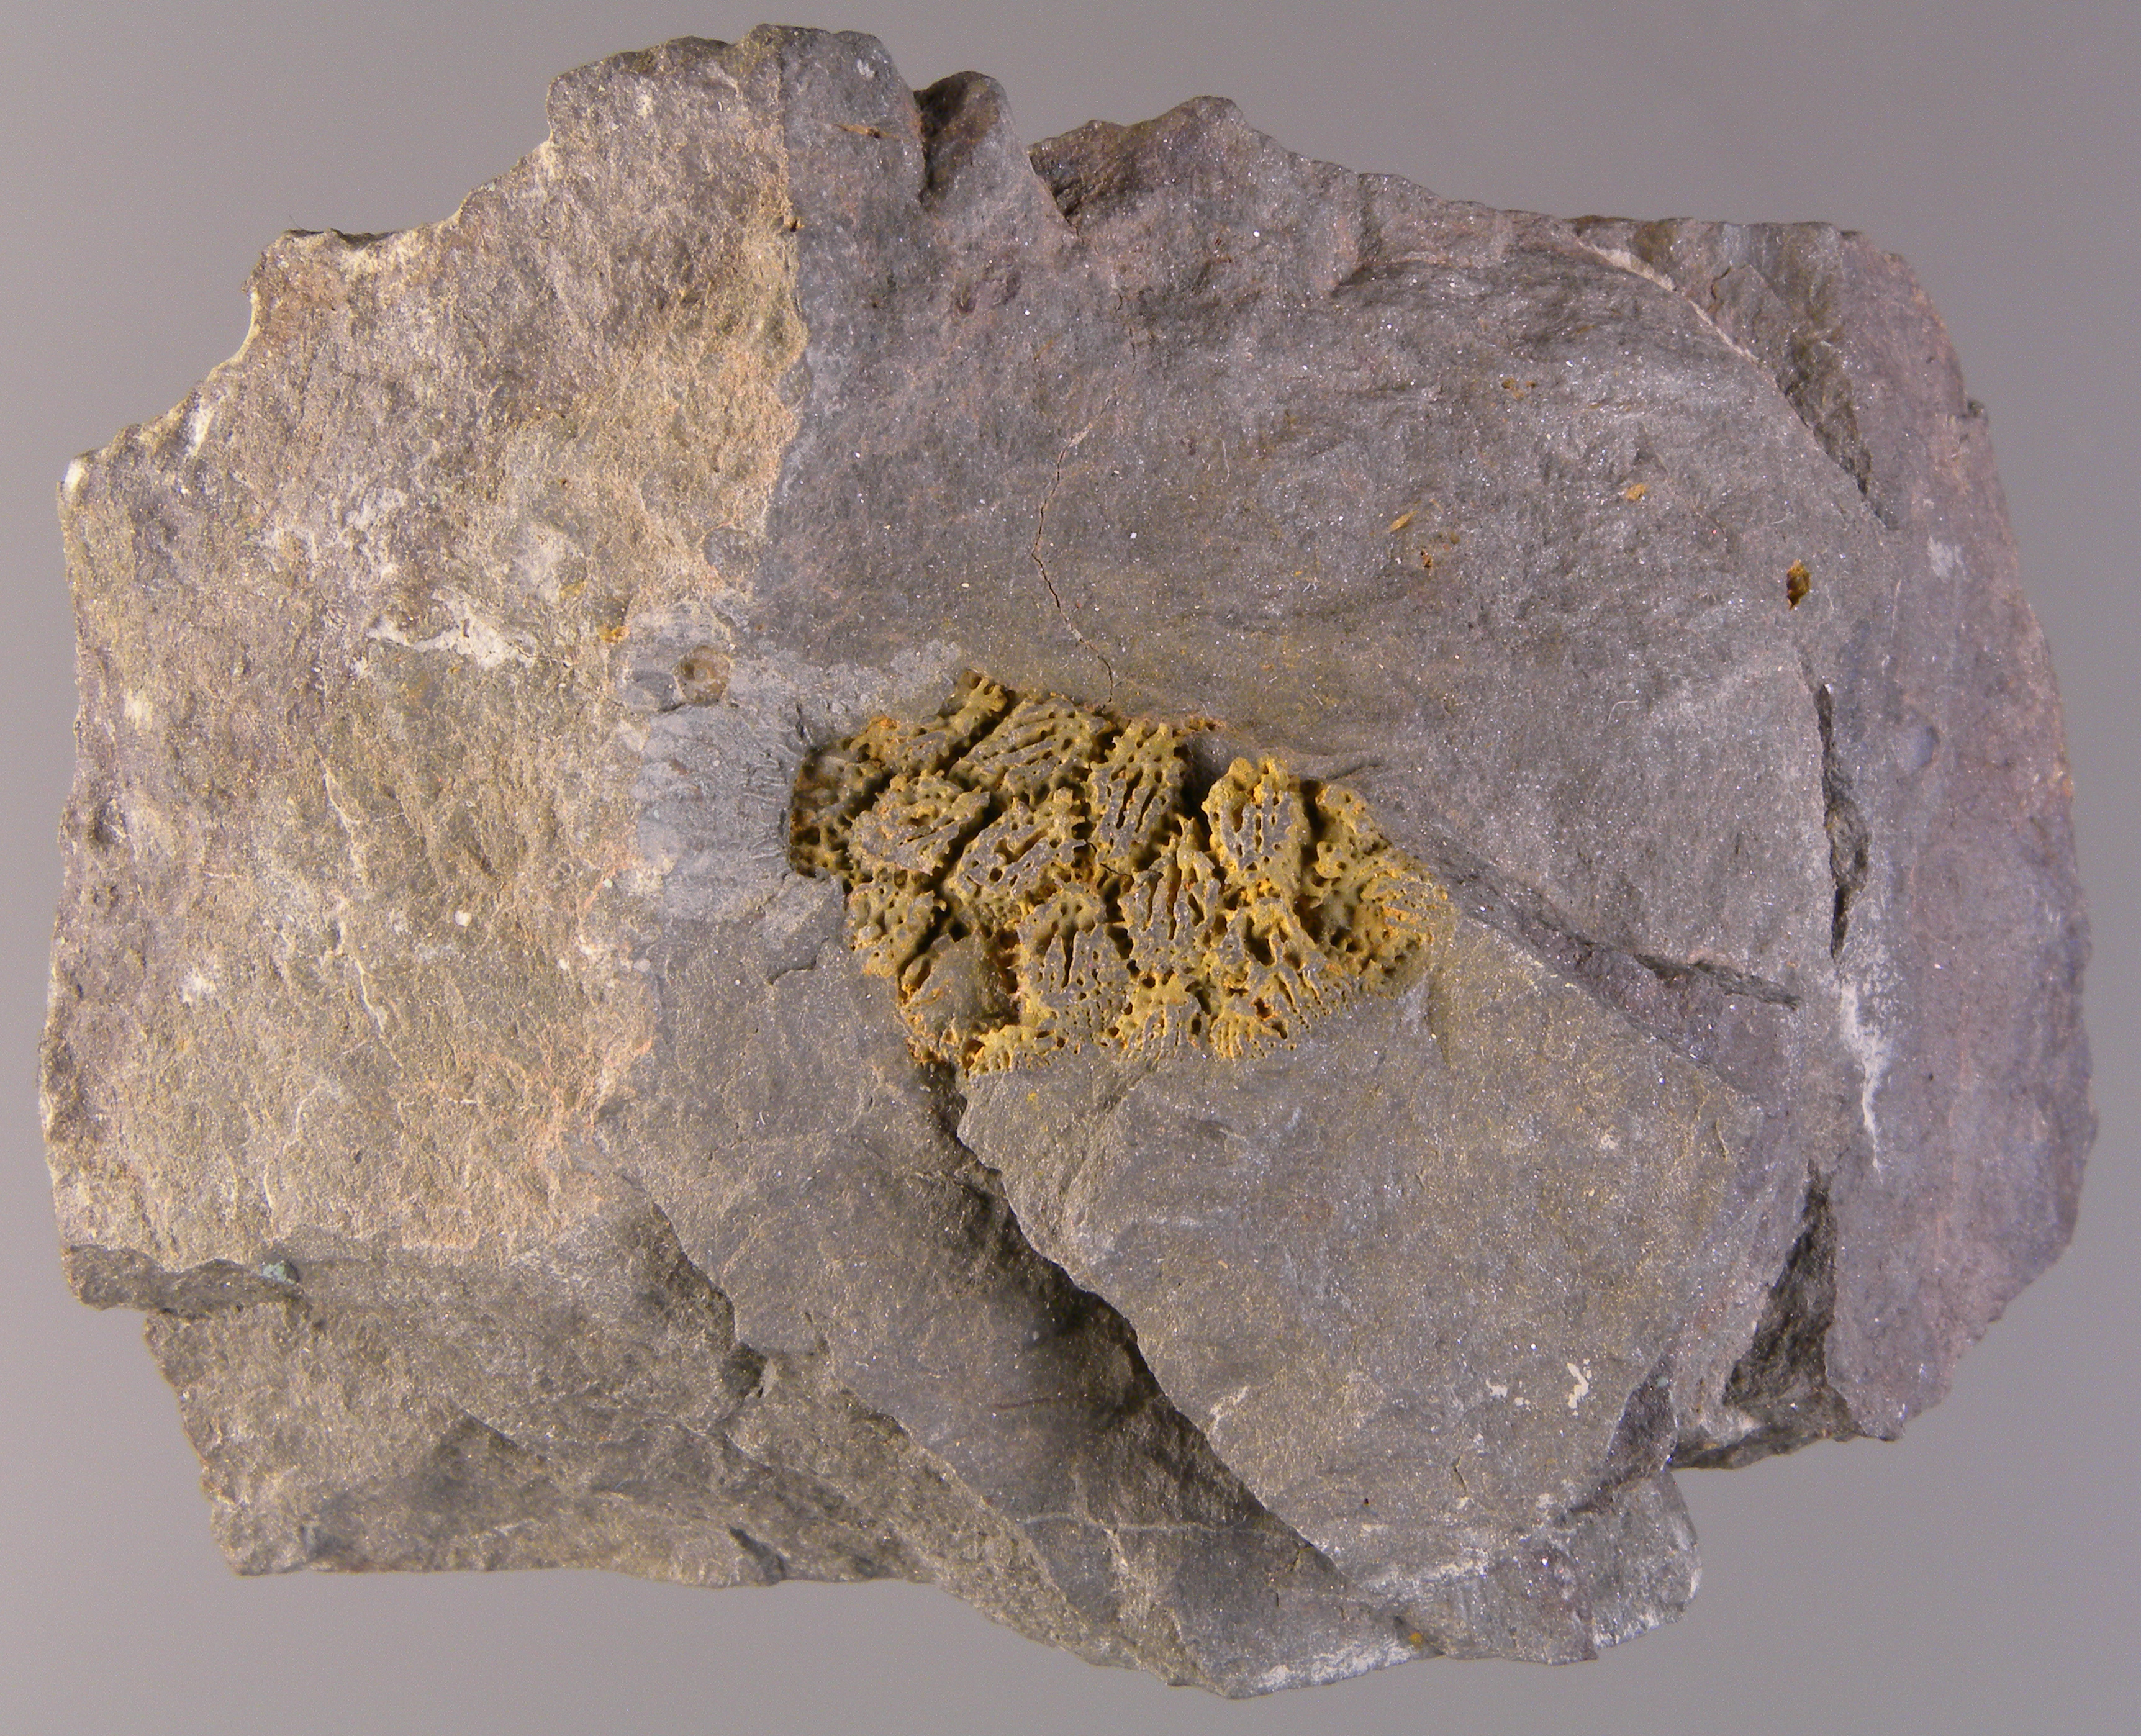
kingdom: Animalia
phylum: Cnidaria
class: Anthozoa
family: Micheliniidae
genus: Petridictyum
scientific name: Petridictyum
